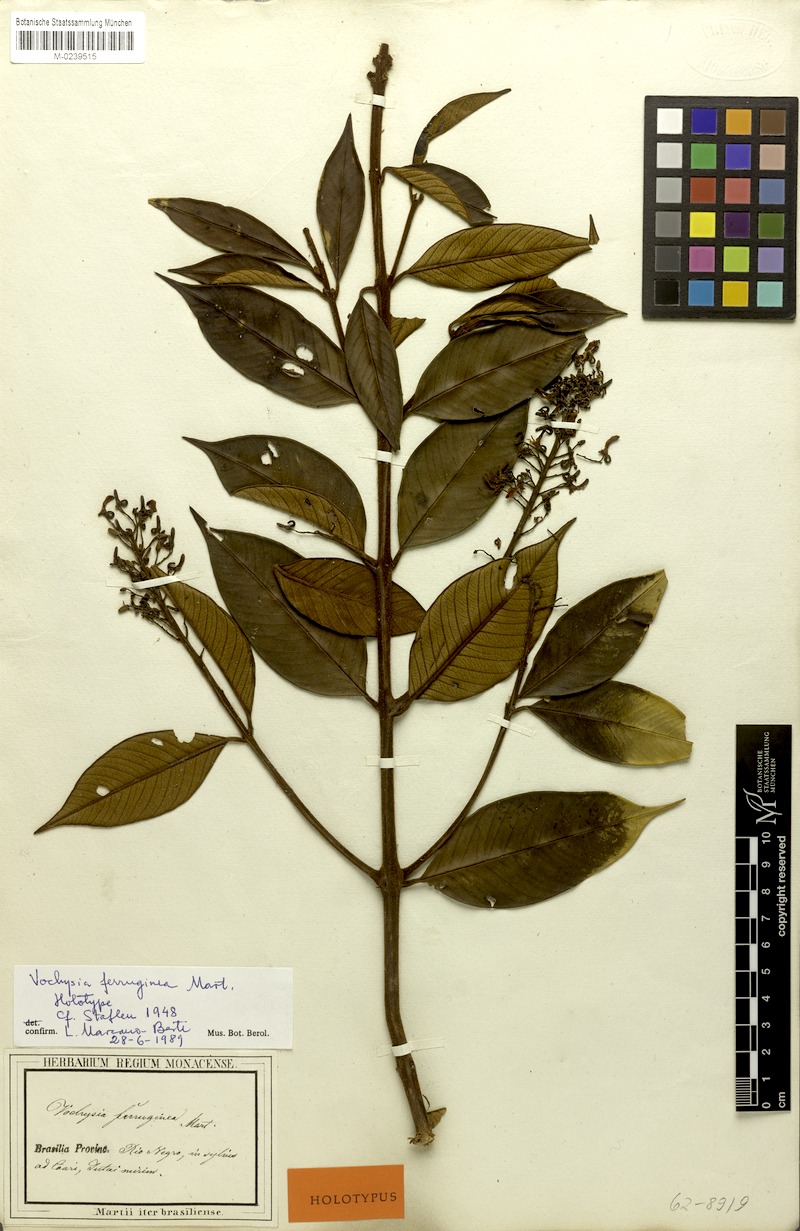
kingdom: Plantae
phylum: Tracheophyta
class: Magnoliopsida
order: Myrtales
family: Vochysiaceae
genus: Vochysia
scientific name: Vochysia ferruginea
